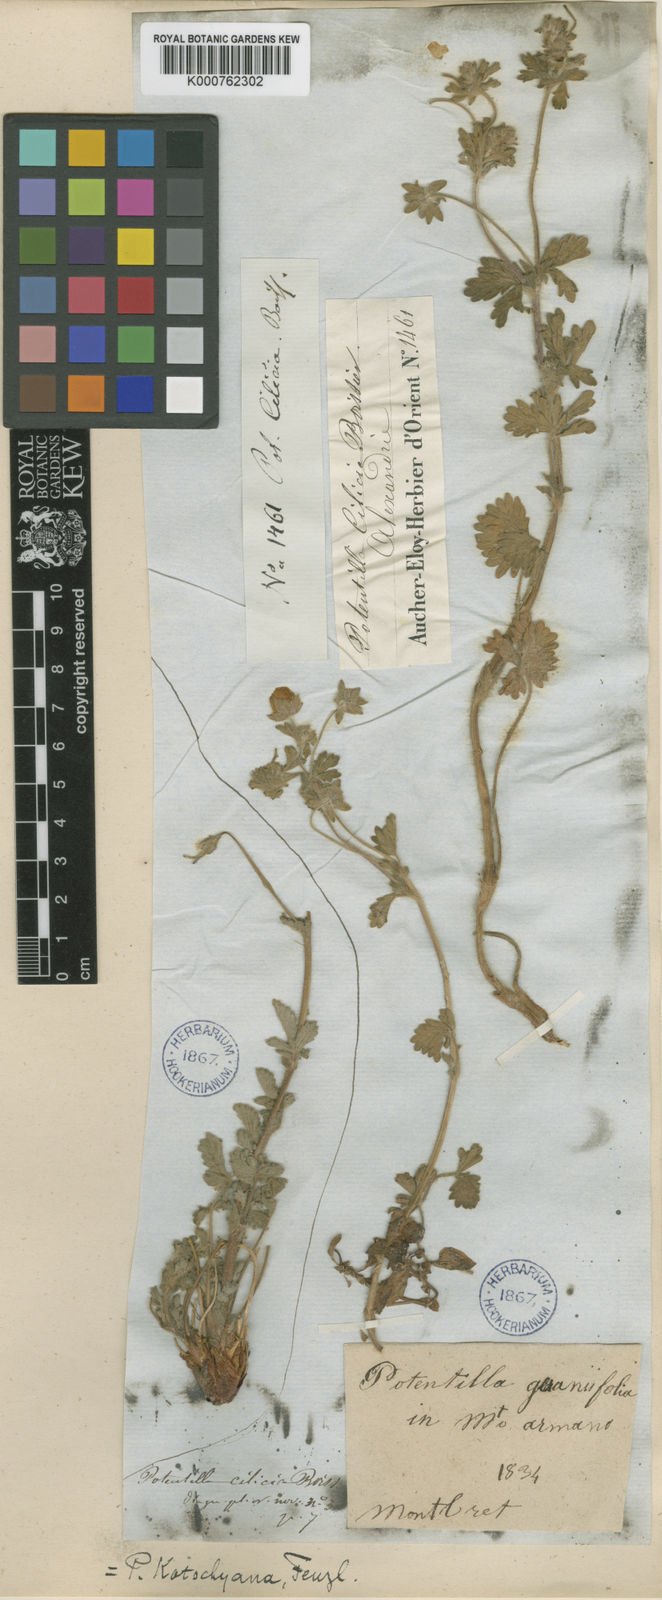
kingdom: Plantae
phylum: Tracheophyta
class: Magnoliopsida
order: Rosales
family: Rosaceae
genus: Potentilla
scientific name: Potentilla kotschyana
